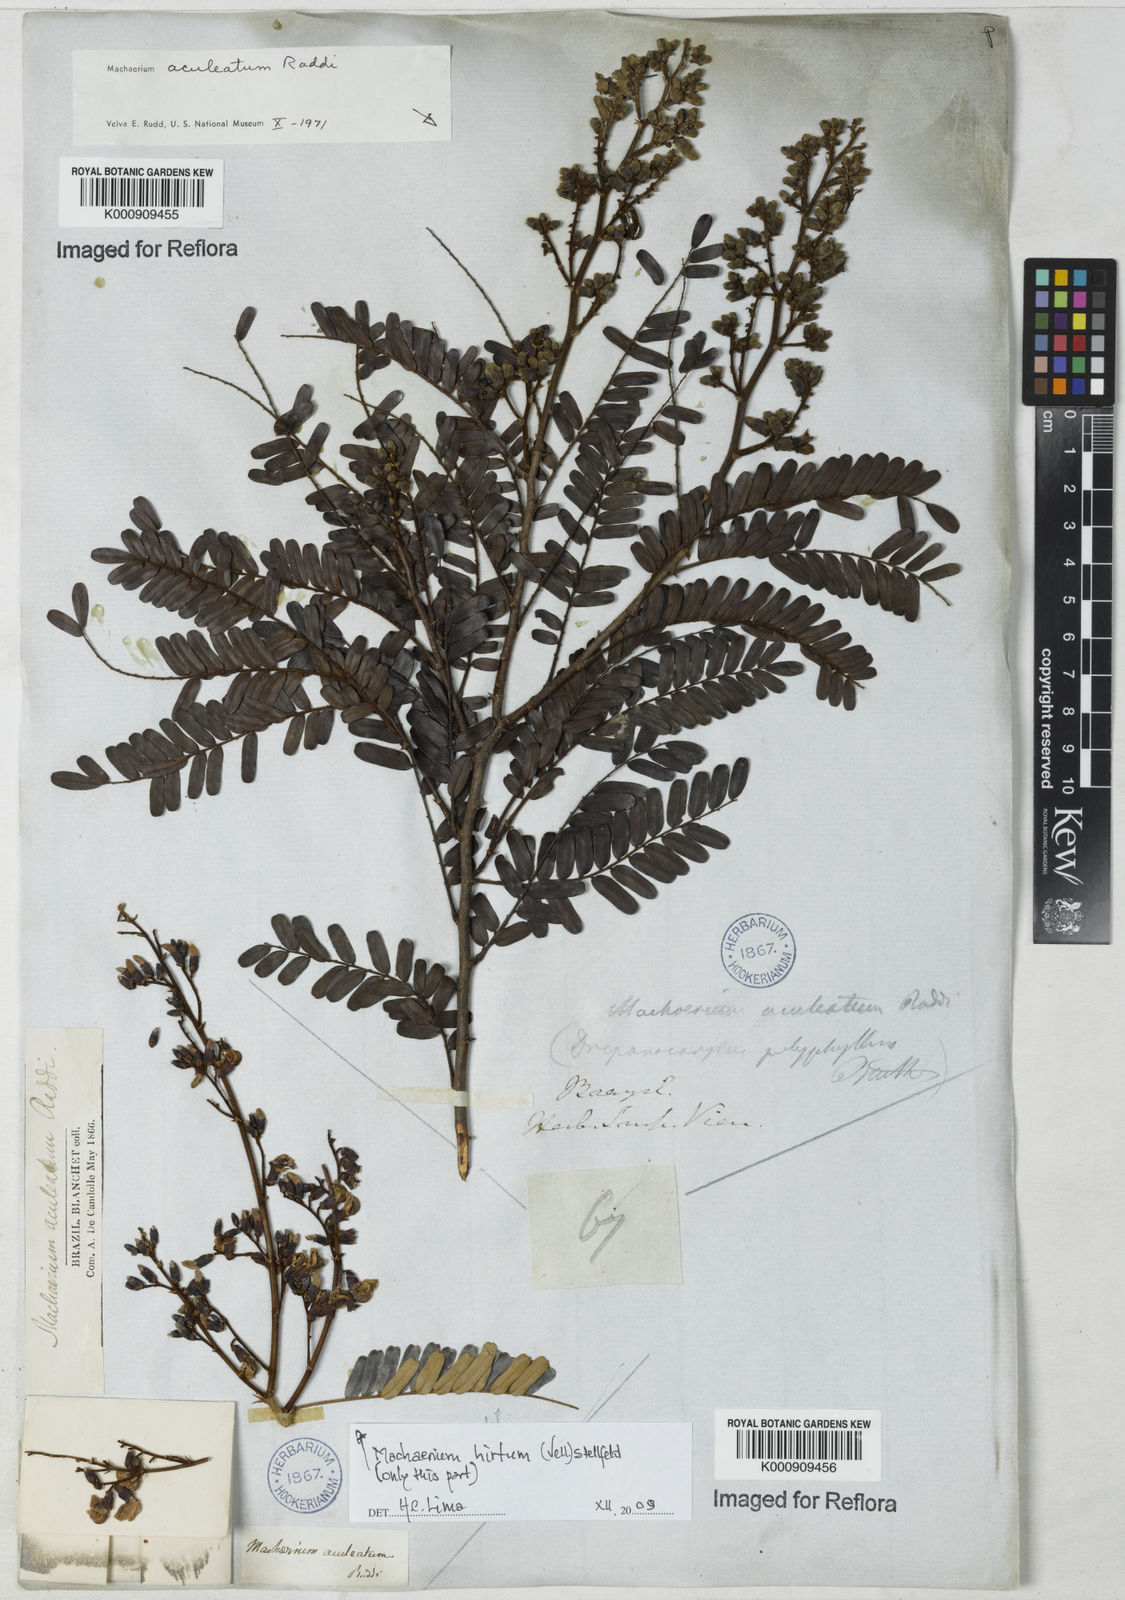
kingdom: Plantae
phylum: Tracheophyta
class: Magnoliopsida
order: Fabales
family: Fabaceae
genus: Machaerium
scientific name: Machaerium aculeatum
